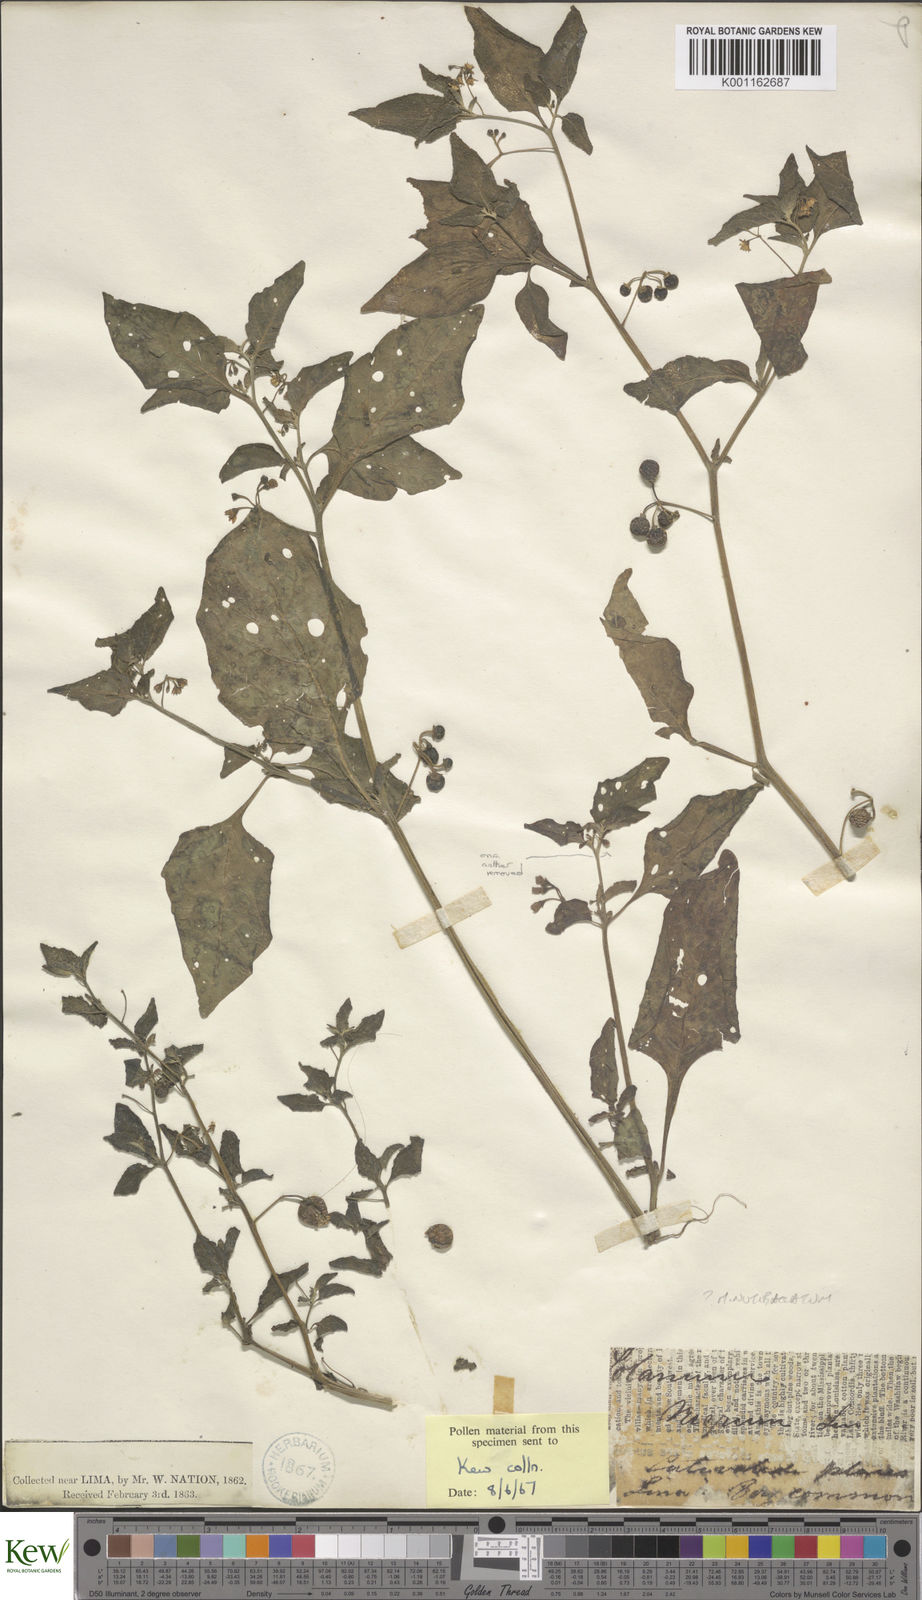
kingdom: Plantae
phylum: Tracheophyta
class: Magnoliopsida
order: Solanales
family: Solanaceae
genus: Solanum
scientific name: Solanum americanum
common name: American black nightshade
